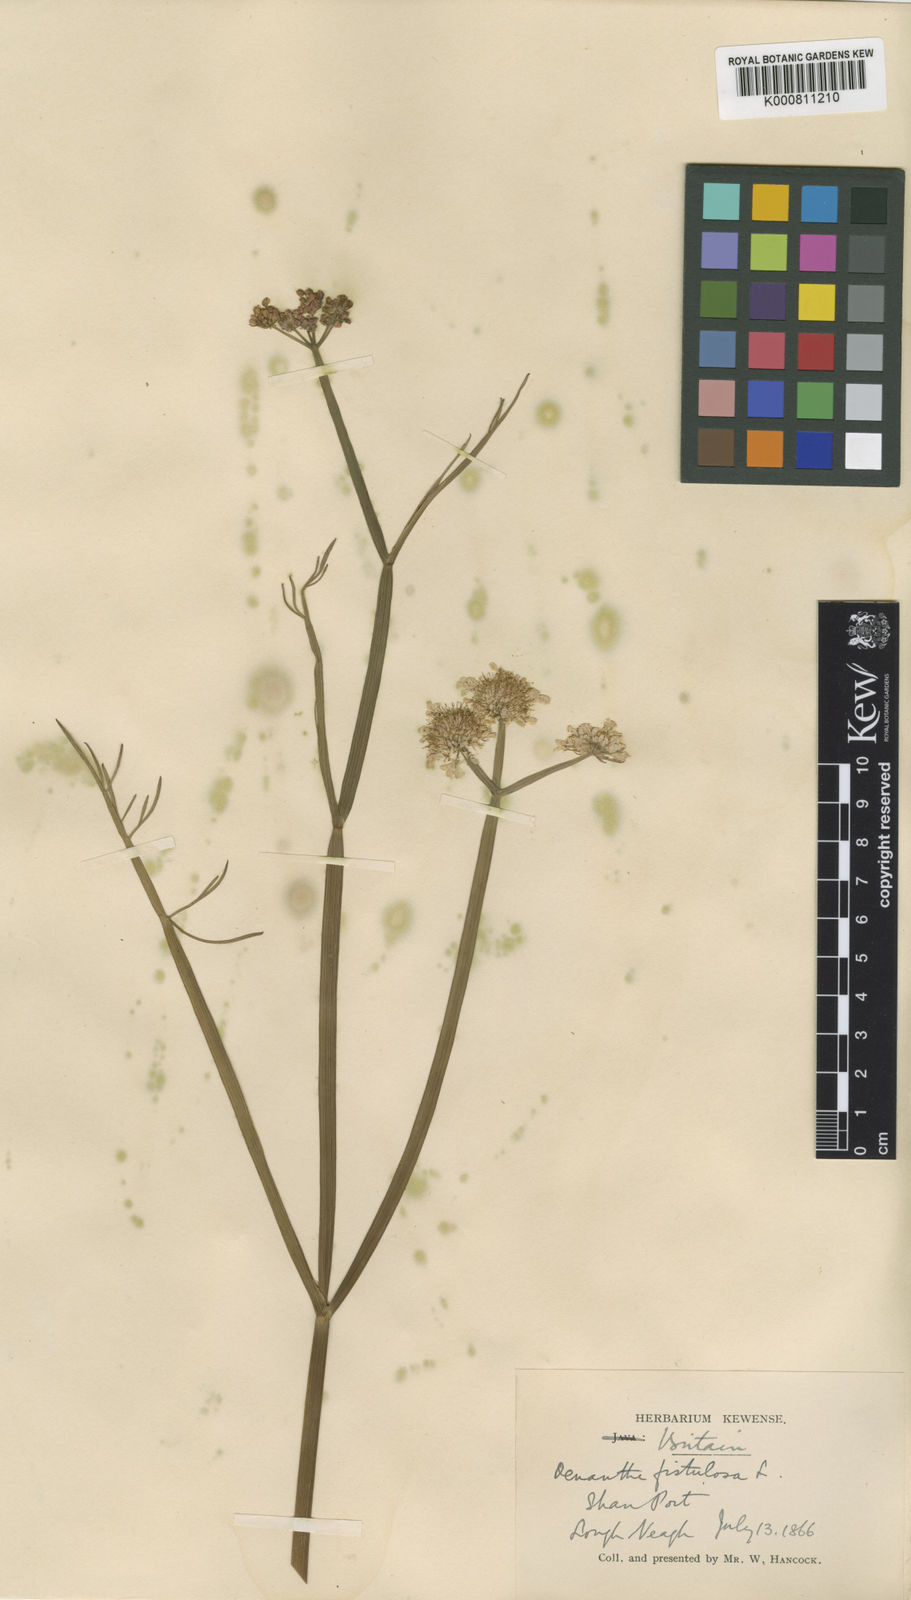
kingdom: Plantae
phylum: Tracheophyta
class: Magnoliopsida
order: Apiales
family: Apiaceae
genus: Oenanthe
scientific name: Oenanthe fistulosa
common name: Tubular water-dropwort
